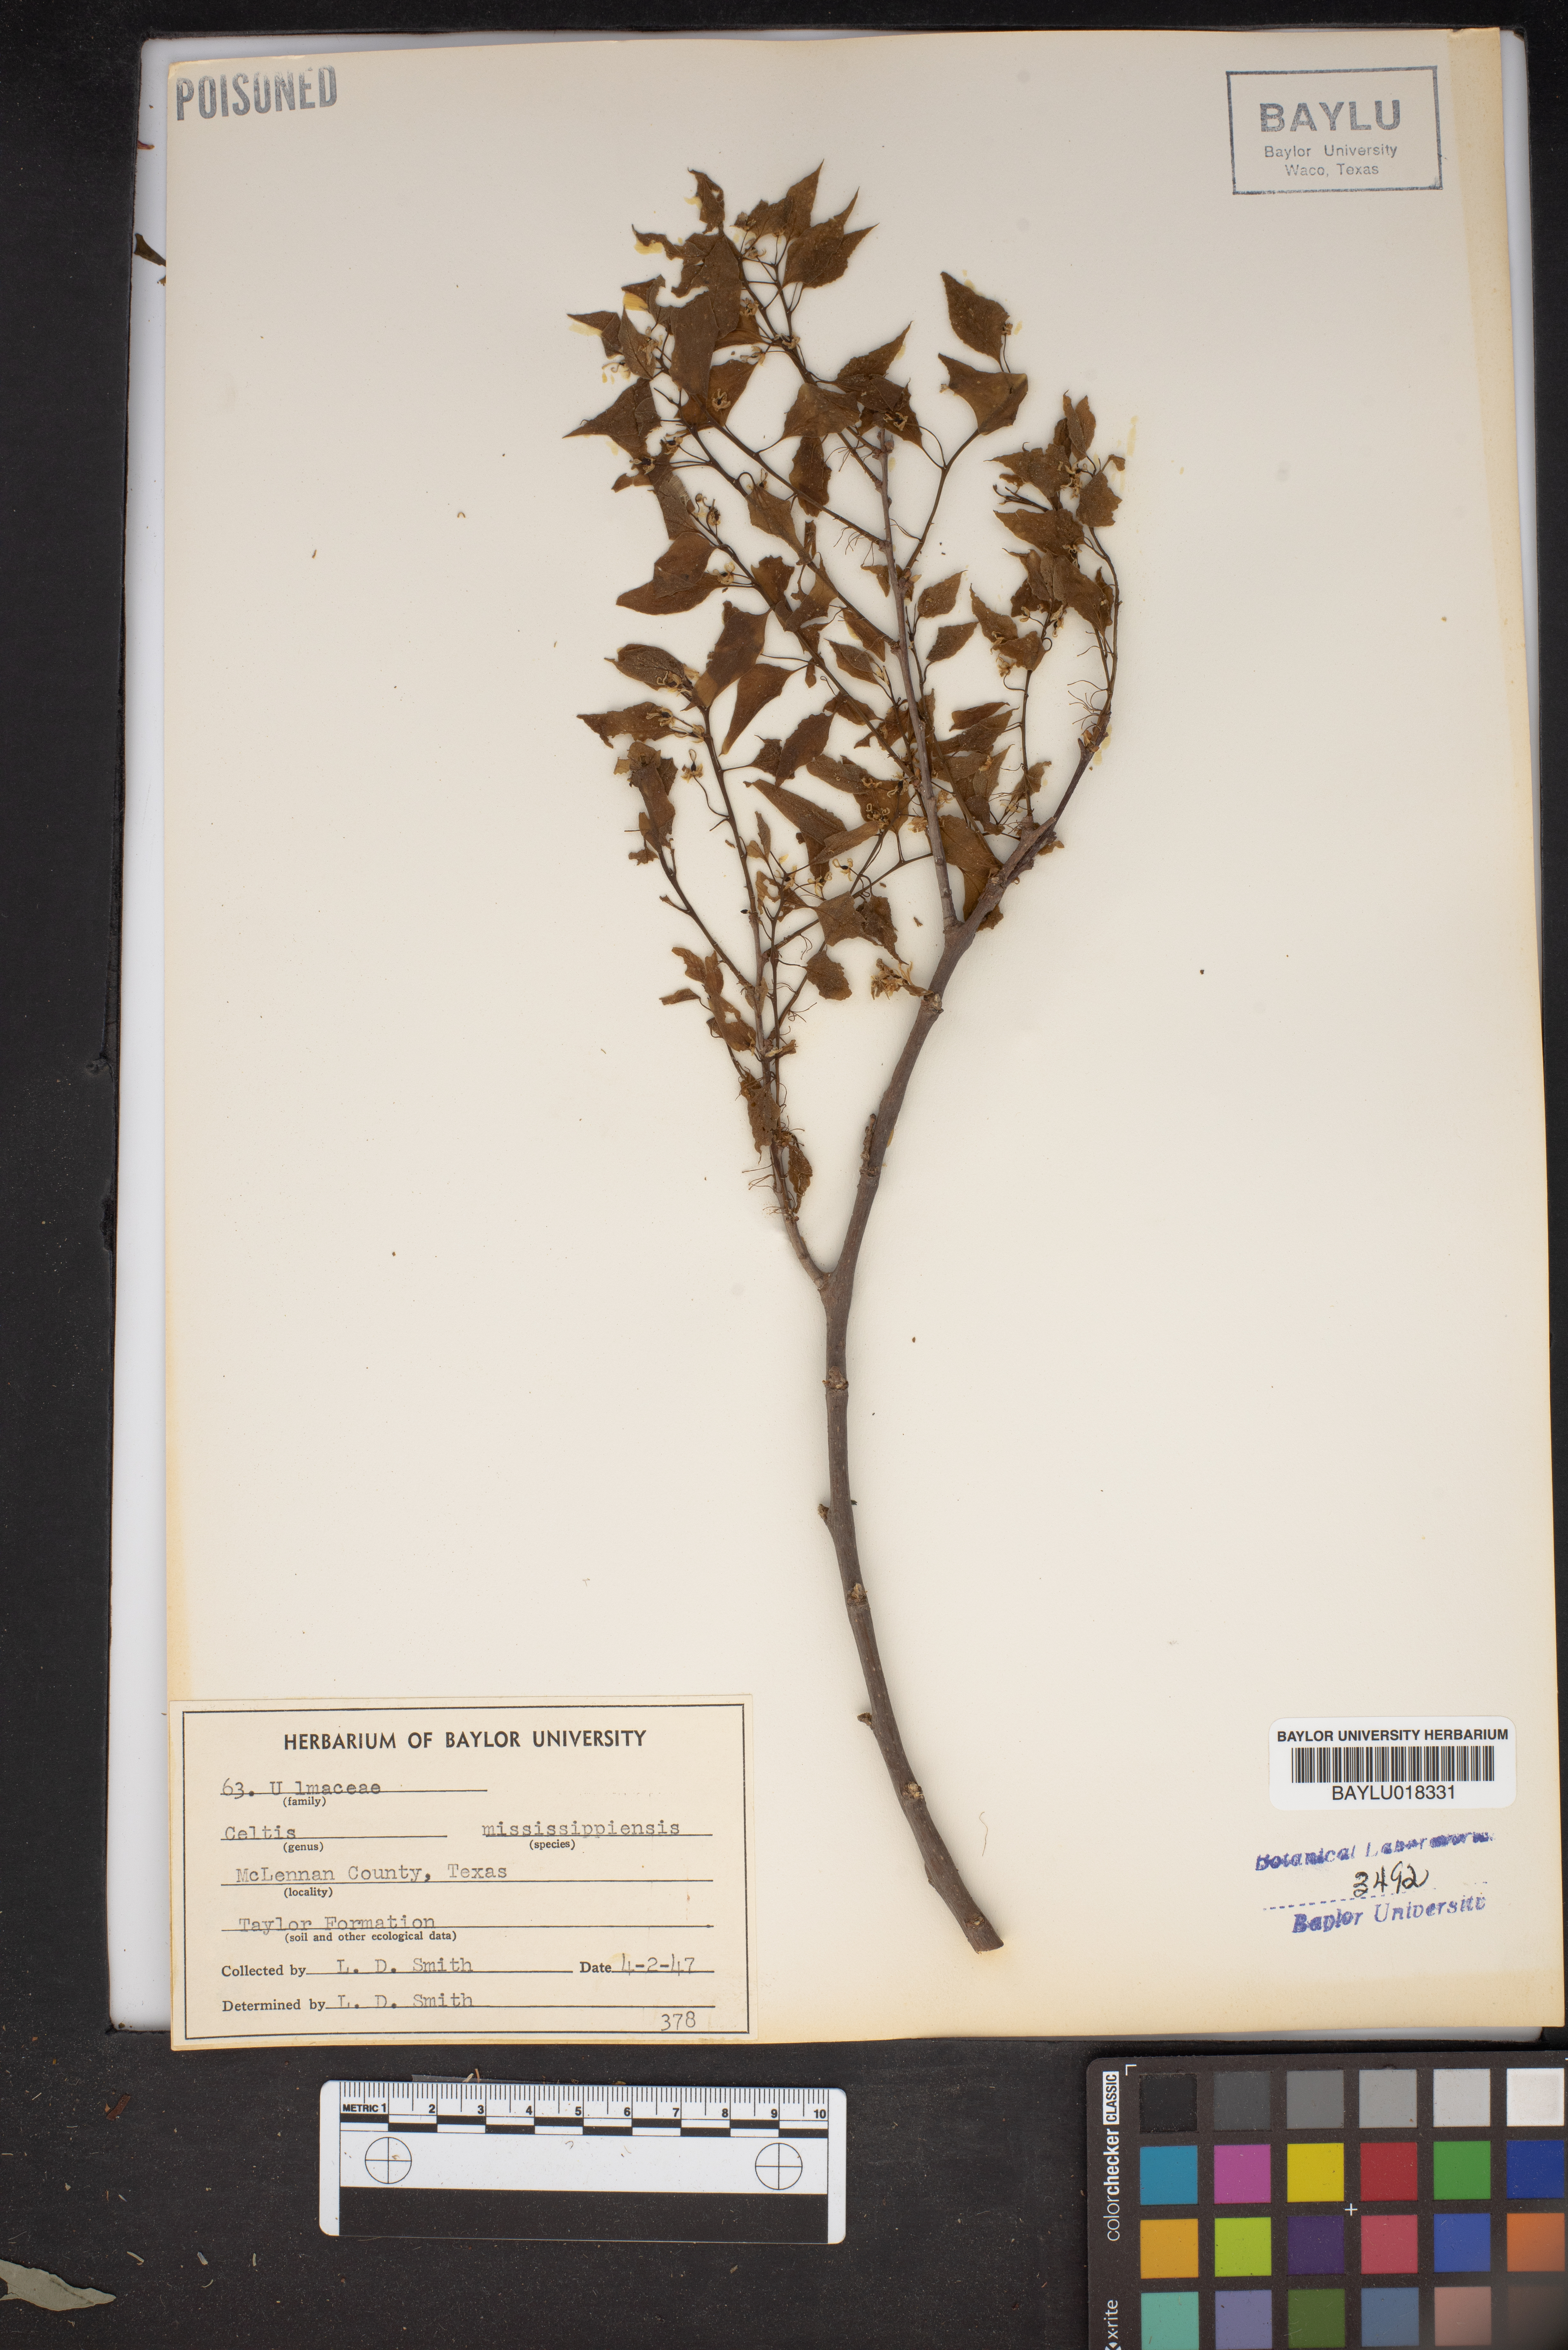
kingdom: Plantae
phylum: Tracheophyta
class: Magnoliopsida
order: Rosales
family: Cannabaceae
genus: Celtis
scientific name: Celtis
